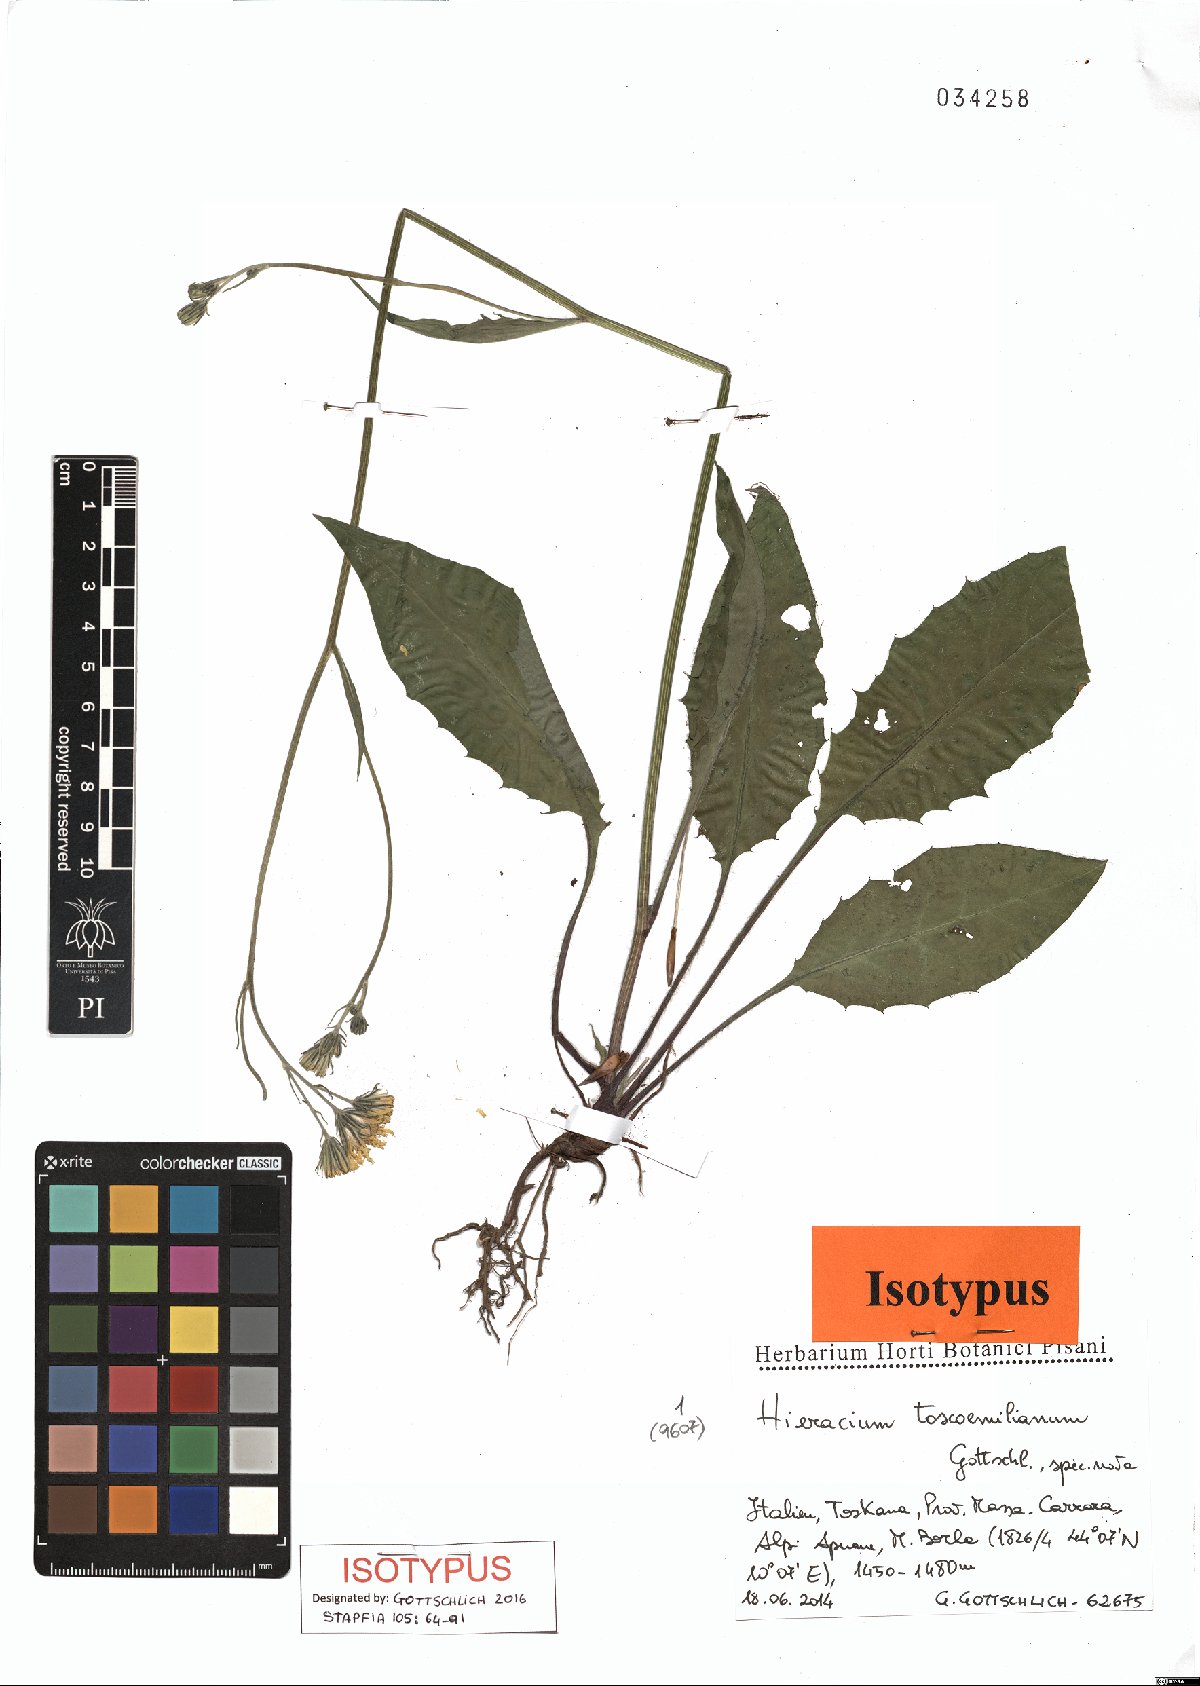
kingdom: Plantae
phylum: Tracheophyta
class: Magnoliopsida
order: Asterales
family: Asteraceae
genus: Hieracium
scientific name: Hieracium toscoemilianum
